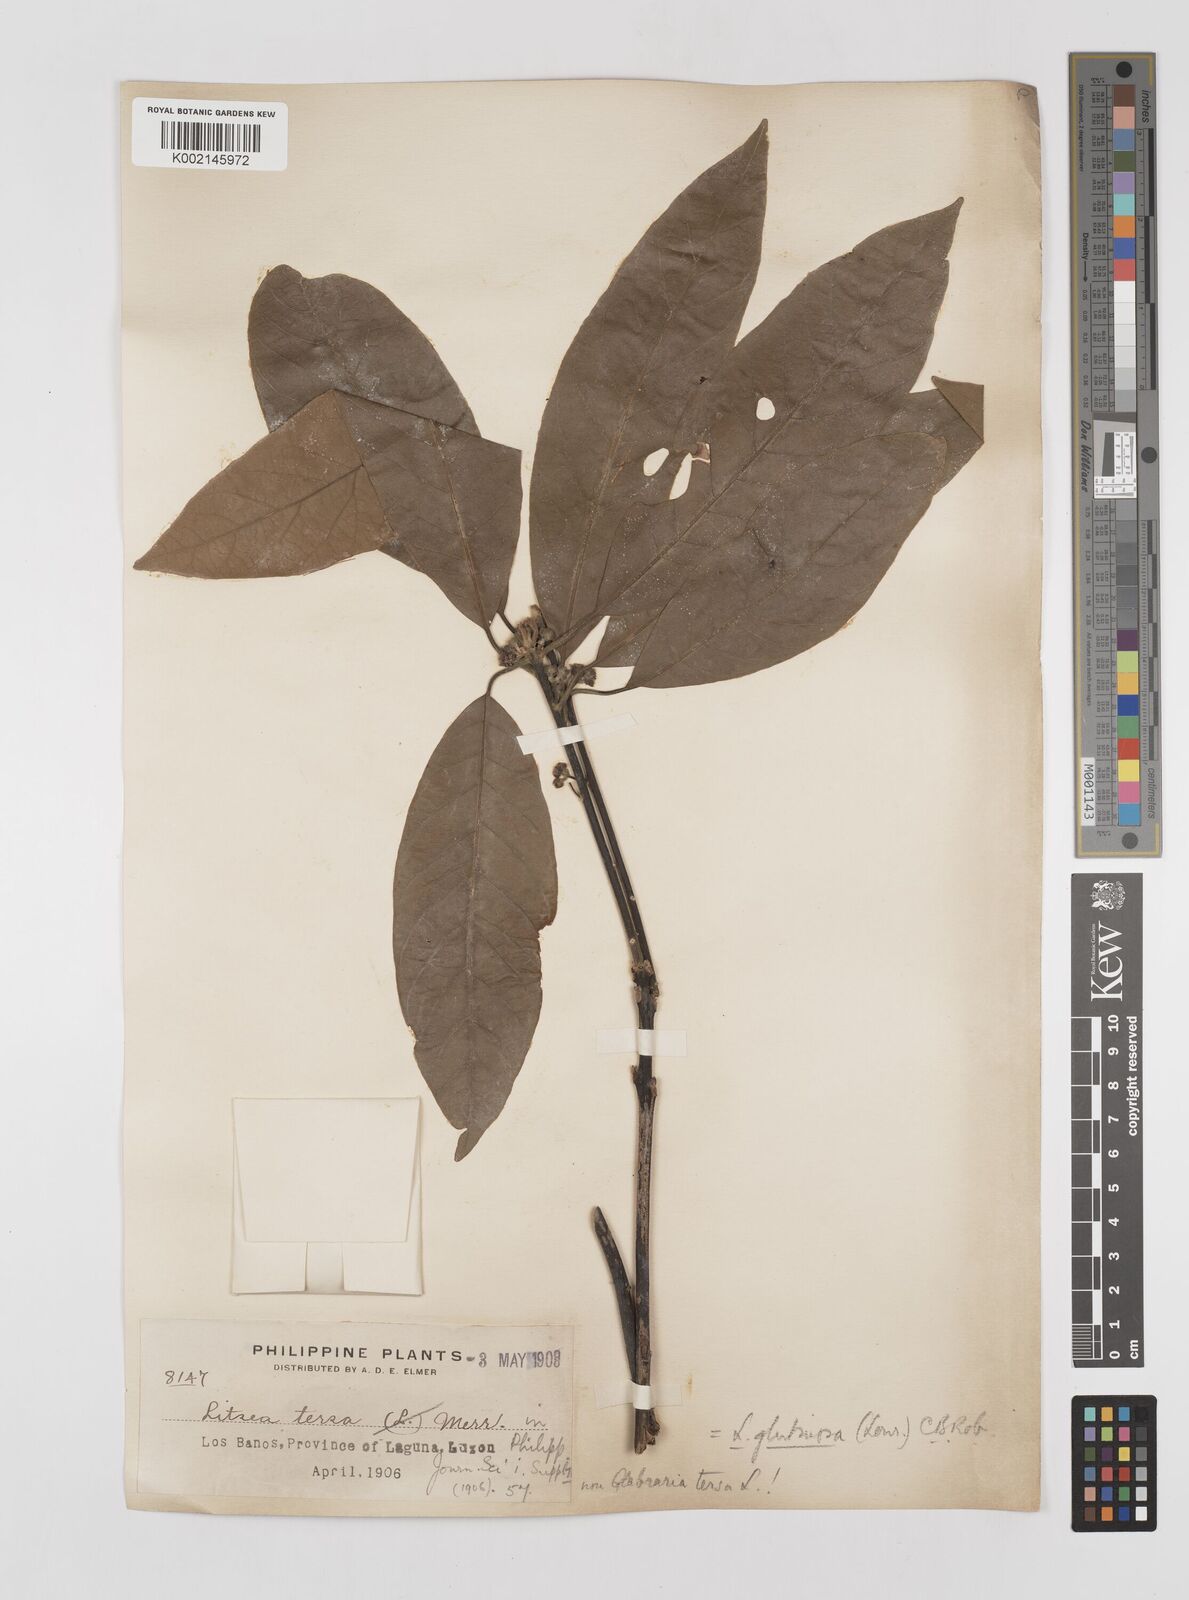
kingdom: Plantae
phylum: Tracheophyta
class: Magnoliopsida
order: Laurales
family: Lauraceae
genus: Litsea
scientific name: Litsea glutinosa
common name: Indian-laurel
